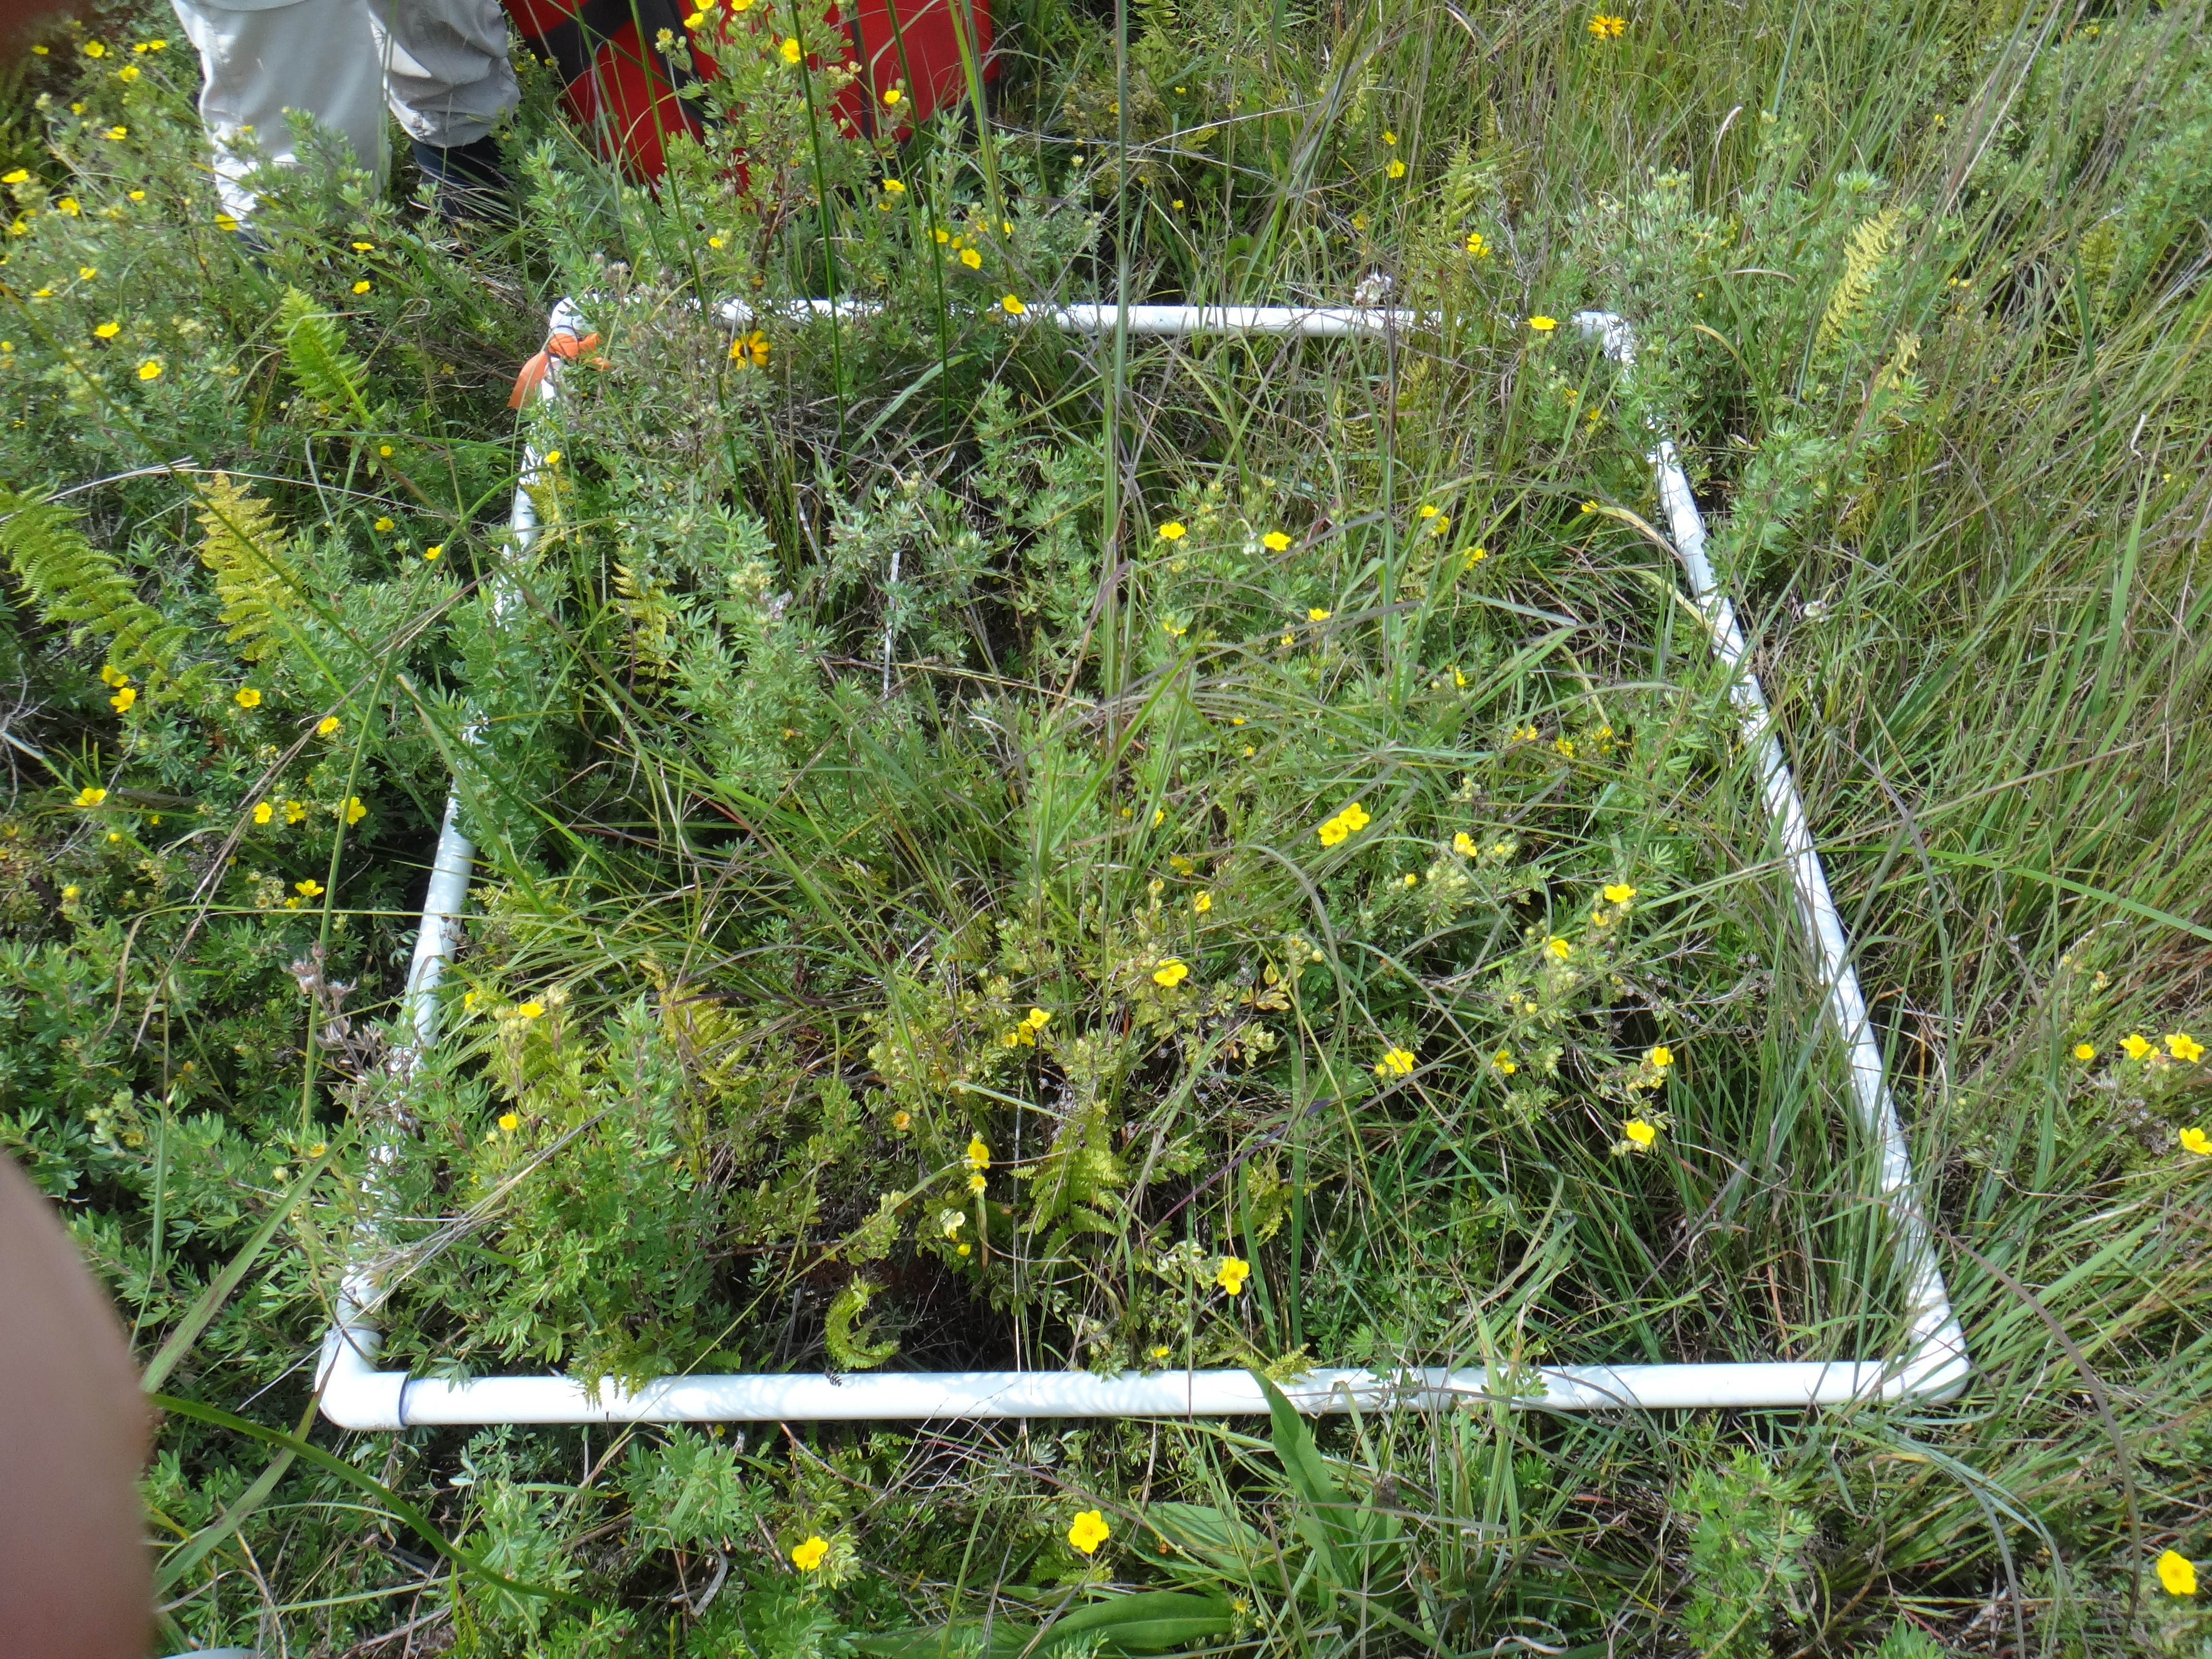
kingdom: Plantae
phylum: Tracheophyta
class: Liliopsida
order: Poales
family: Poaceae
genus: Andropogon
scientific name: Andropogon gerardi
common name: Big bluestem
